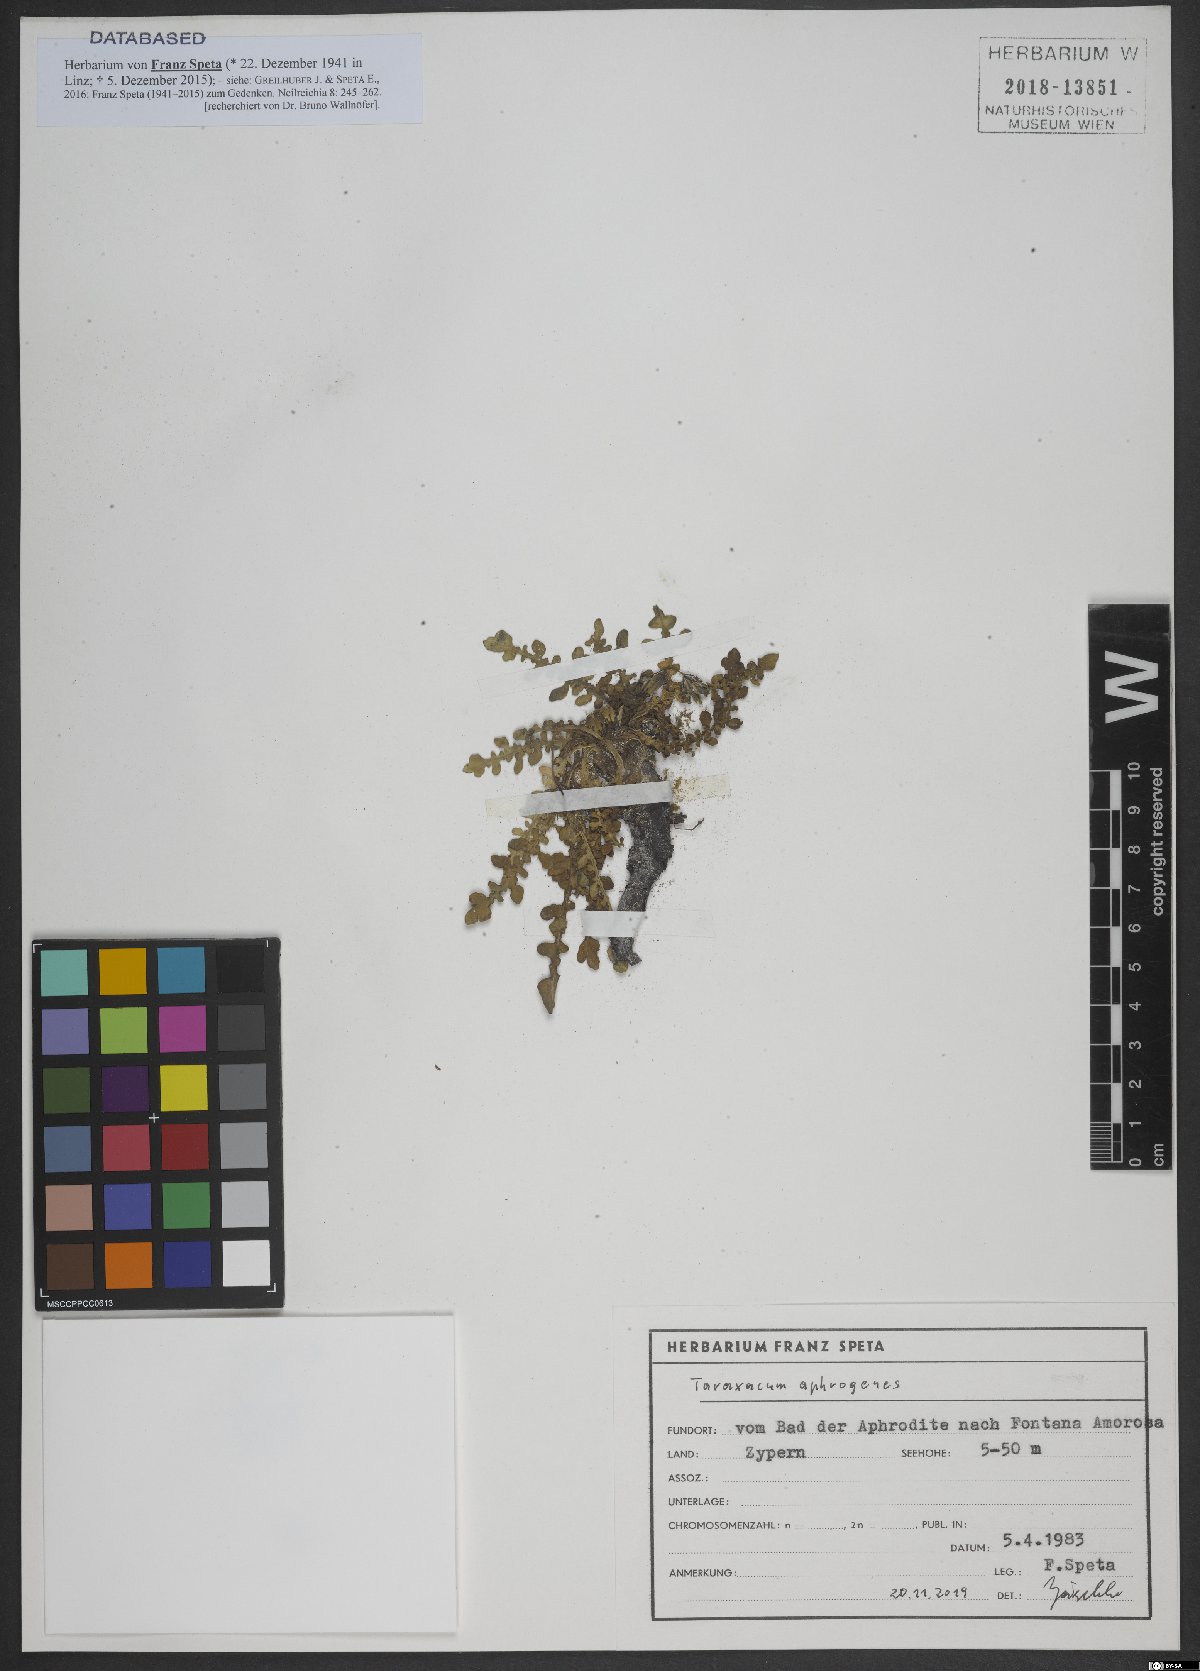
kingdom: Plantae
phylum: Tracheophyta
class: Magnoliopsida
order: Asterales
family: Asteraceae
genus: Taraxacum
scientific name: Taraxacum aphrogenes
